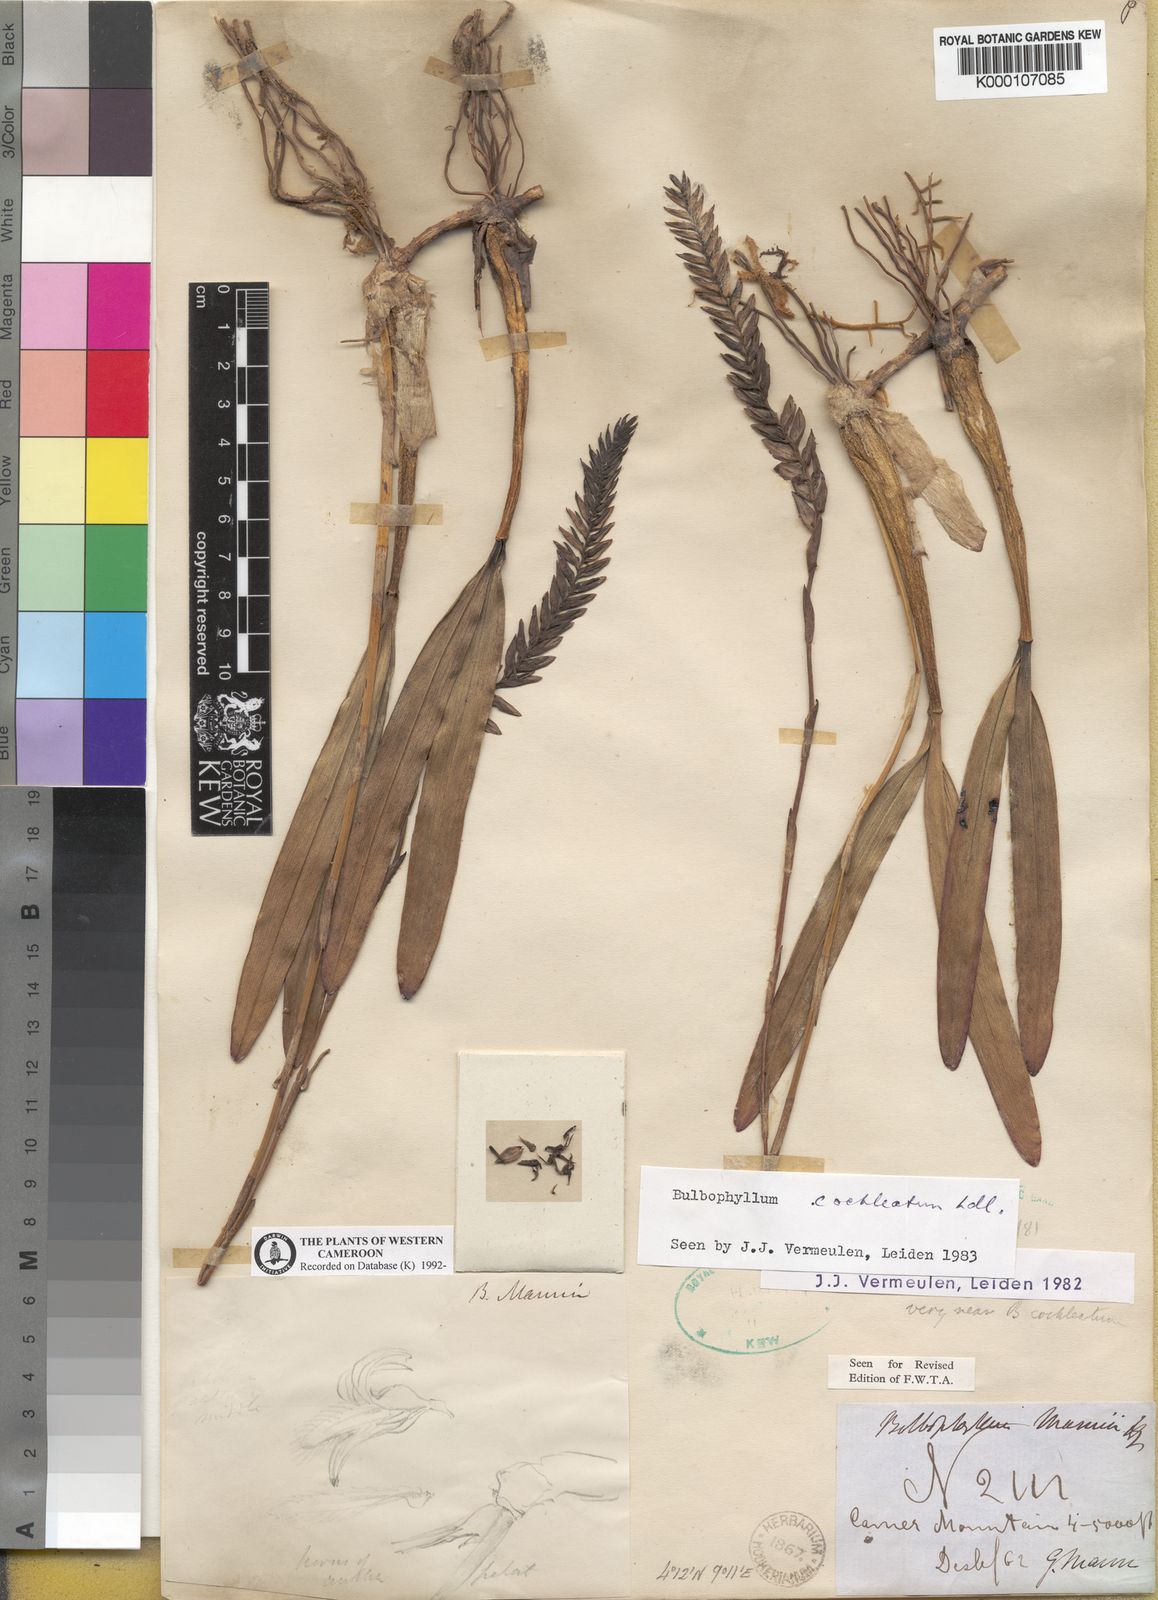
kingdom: Plantae
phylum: Tracheophyta
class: Liliopsida
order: Asparagales
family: Orchidaceae
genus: Bulbophyllum
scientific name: Bulbophyllum cochleatum
